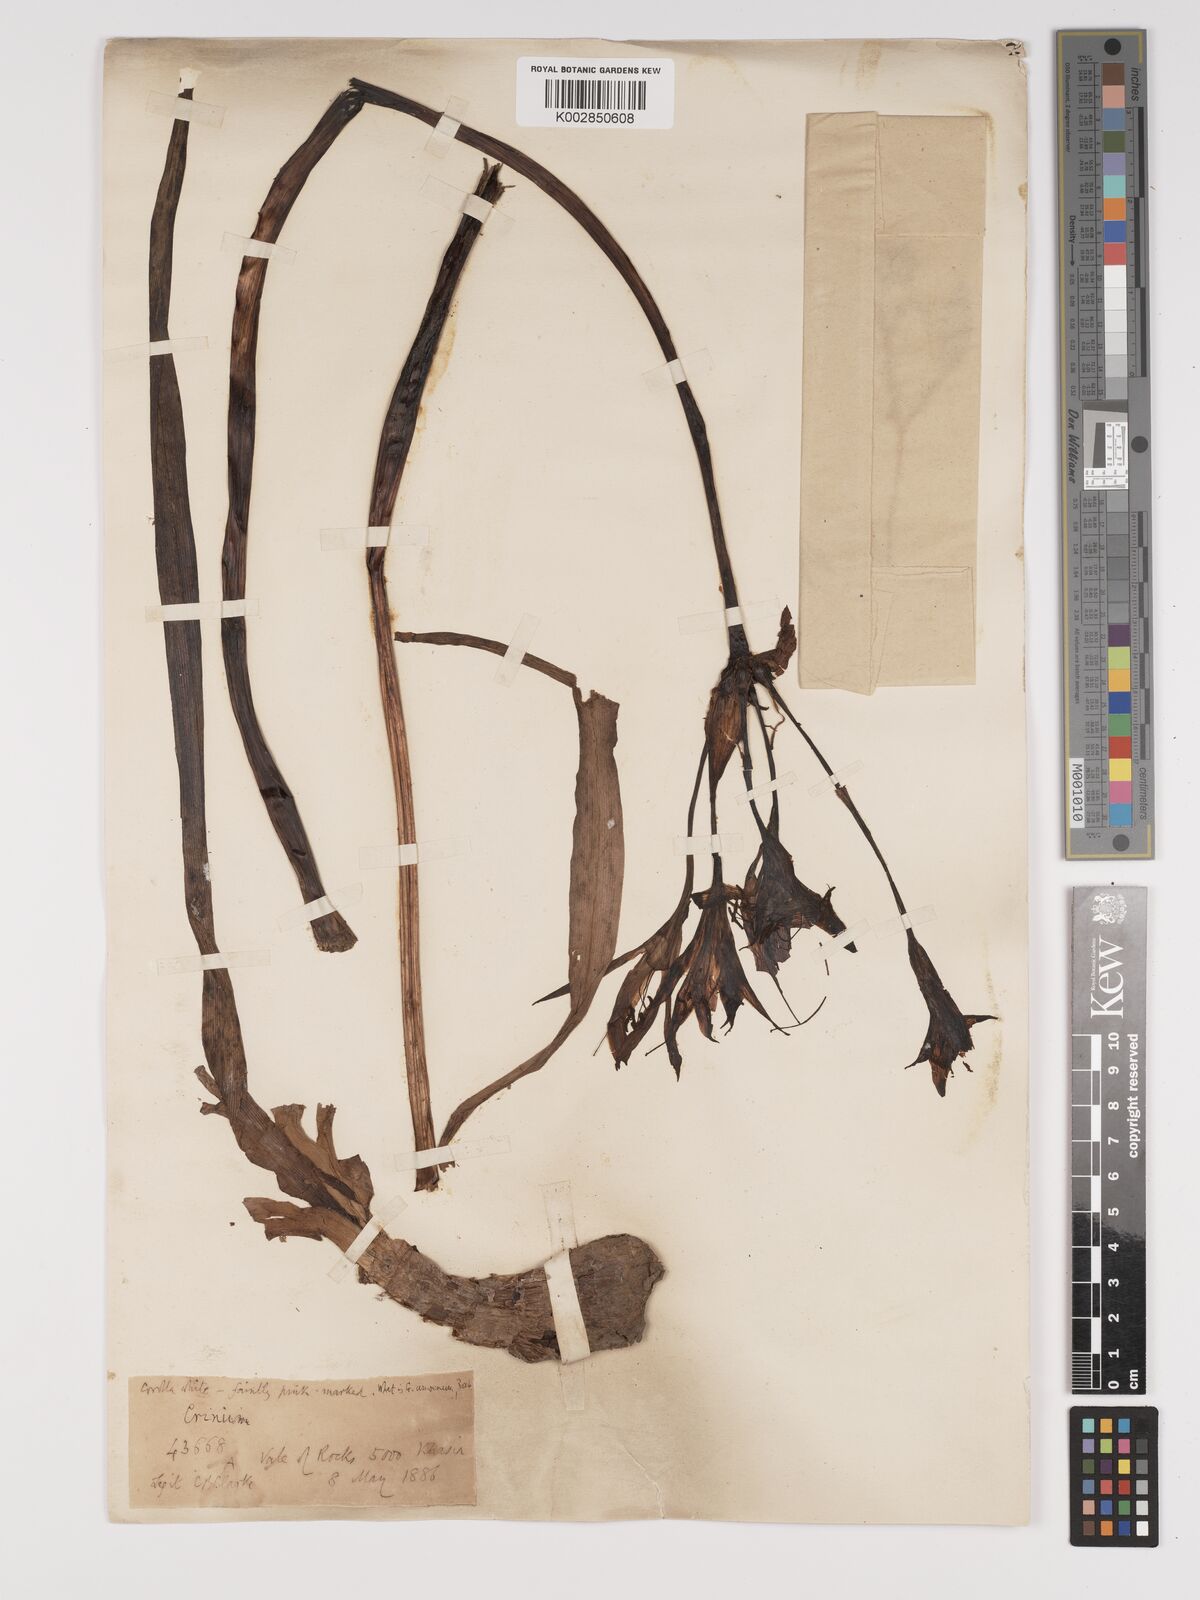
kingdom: Plantae
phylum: Tracheophyta
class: Liliopsida
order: Asparagales
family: Amaryllidaceae
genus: Crinum
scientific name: Crinum defixum
